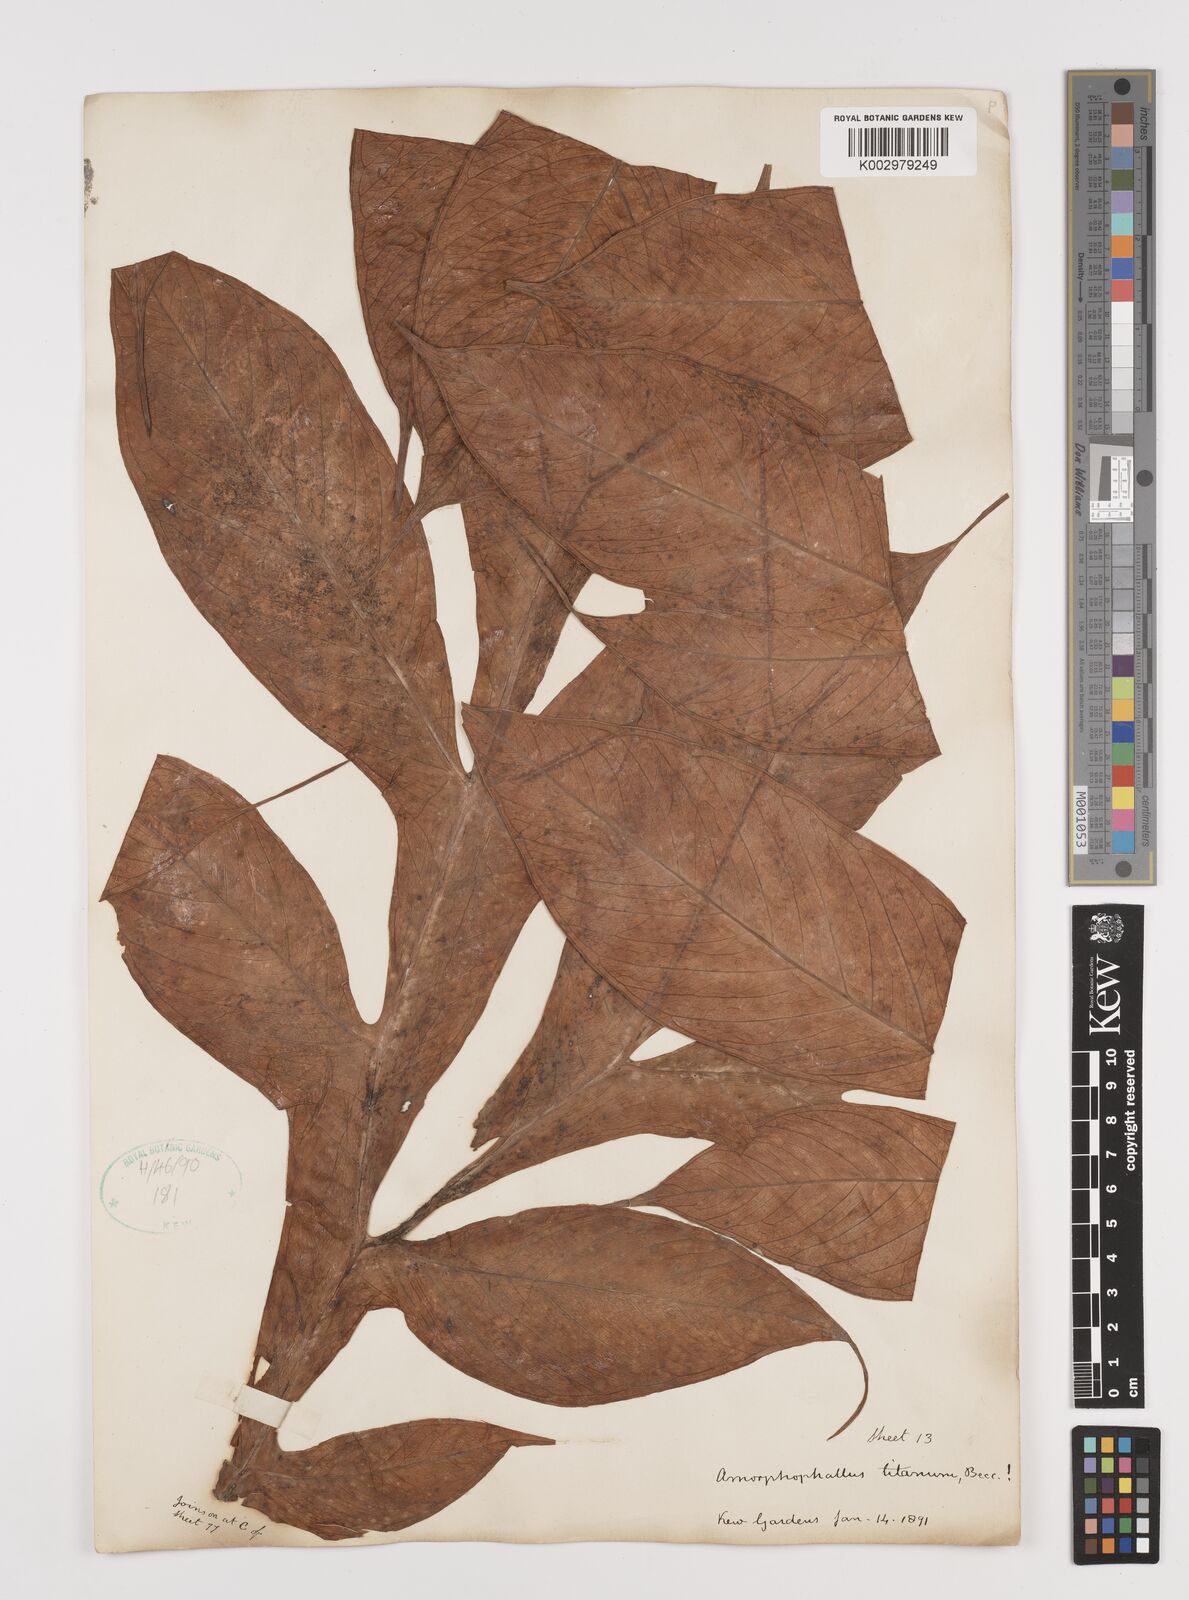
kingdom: Plantae
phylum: Tracheophyta
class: Liliopsida
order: Alismatales
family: Araceae
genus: Amorphophallus
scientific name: Amorphophallus titanum
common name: Titan arum
